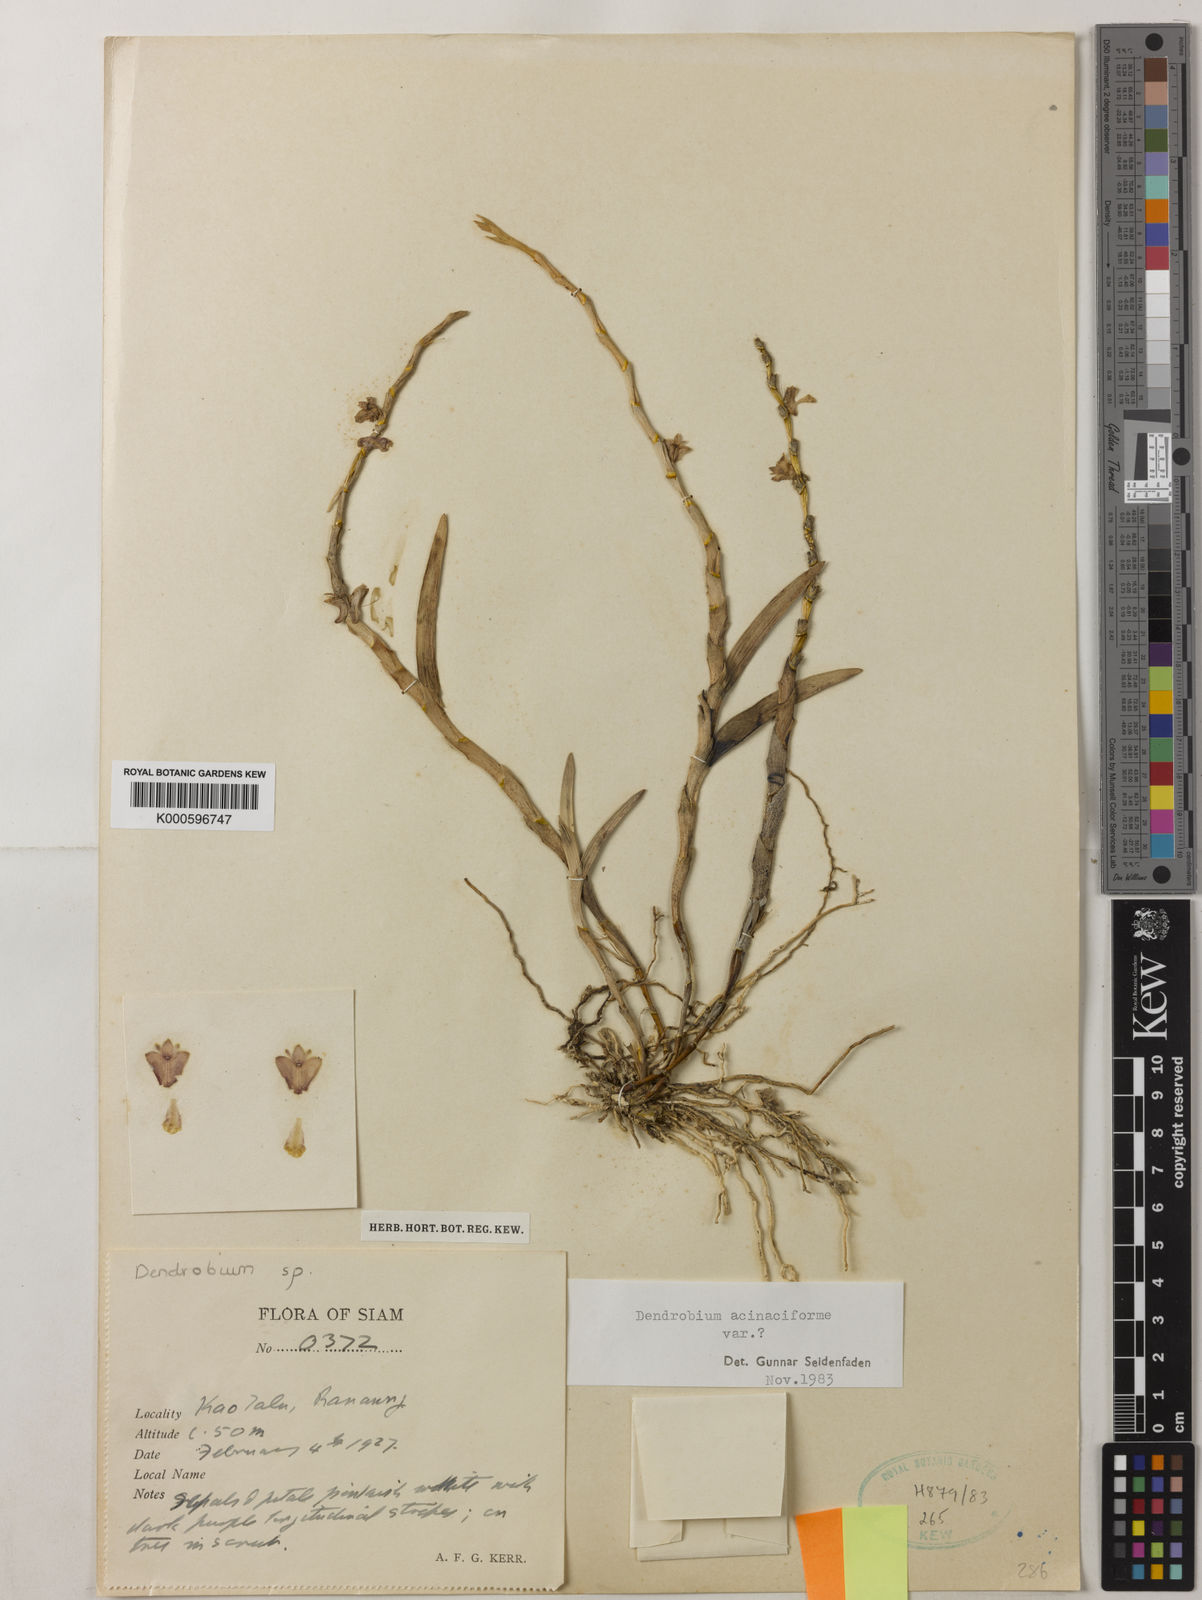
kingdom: Plantae
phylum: Tracheophyta
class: Liliopsida
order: Asparagales
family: Orchidaceae
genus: Dendrobium
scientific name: Dendrobium acinaciforme
